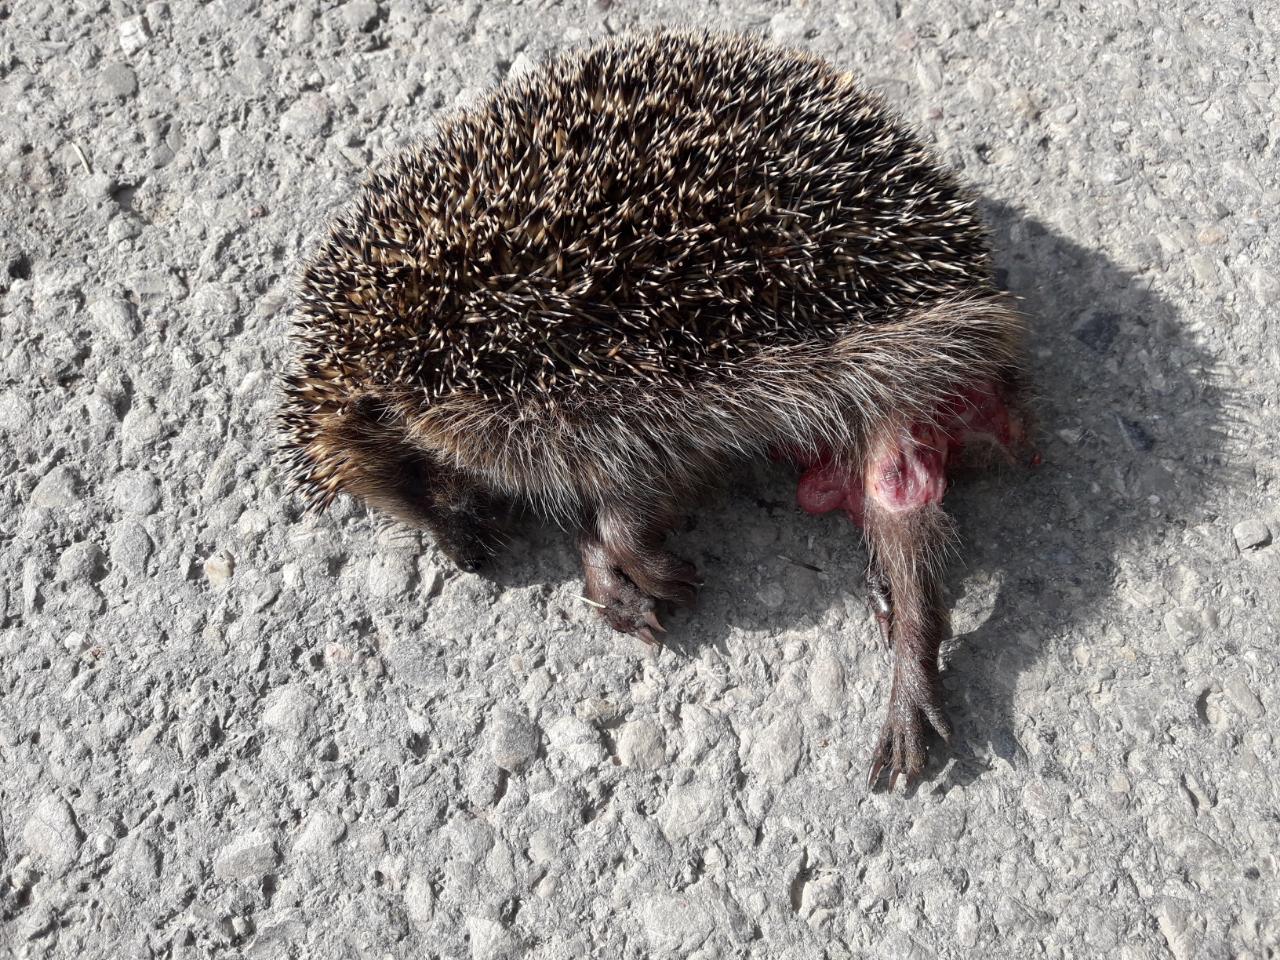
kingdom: Animalia
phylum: Chordata
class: Mammalia
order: Erinaceomorpha
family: Erinaceidae
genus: Erinaceus
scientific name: Erinaceus
